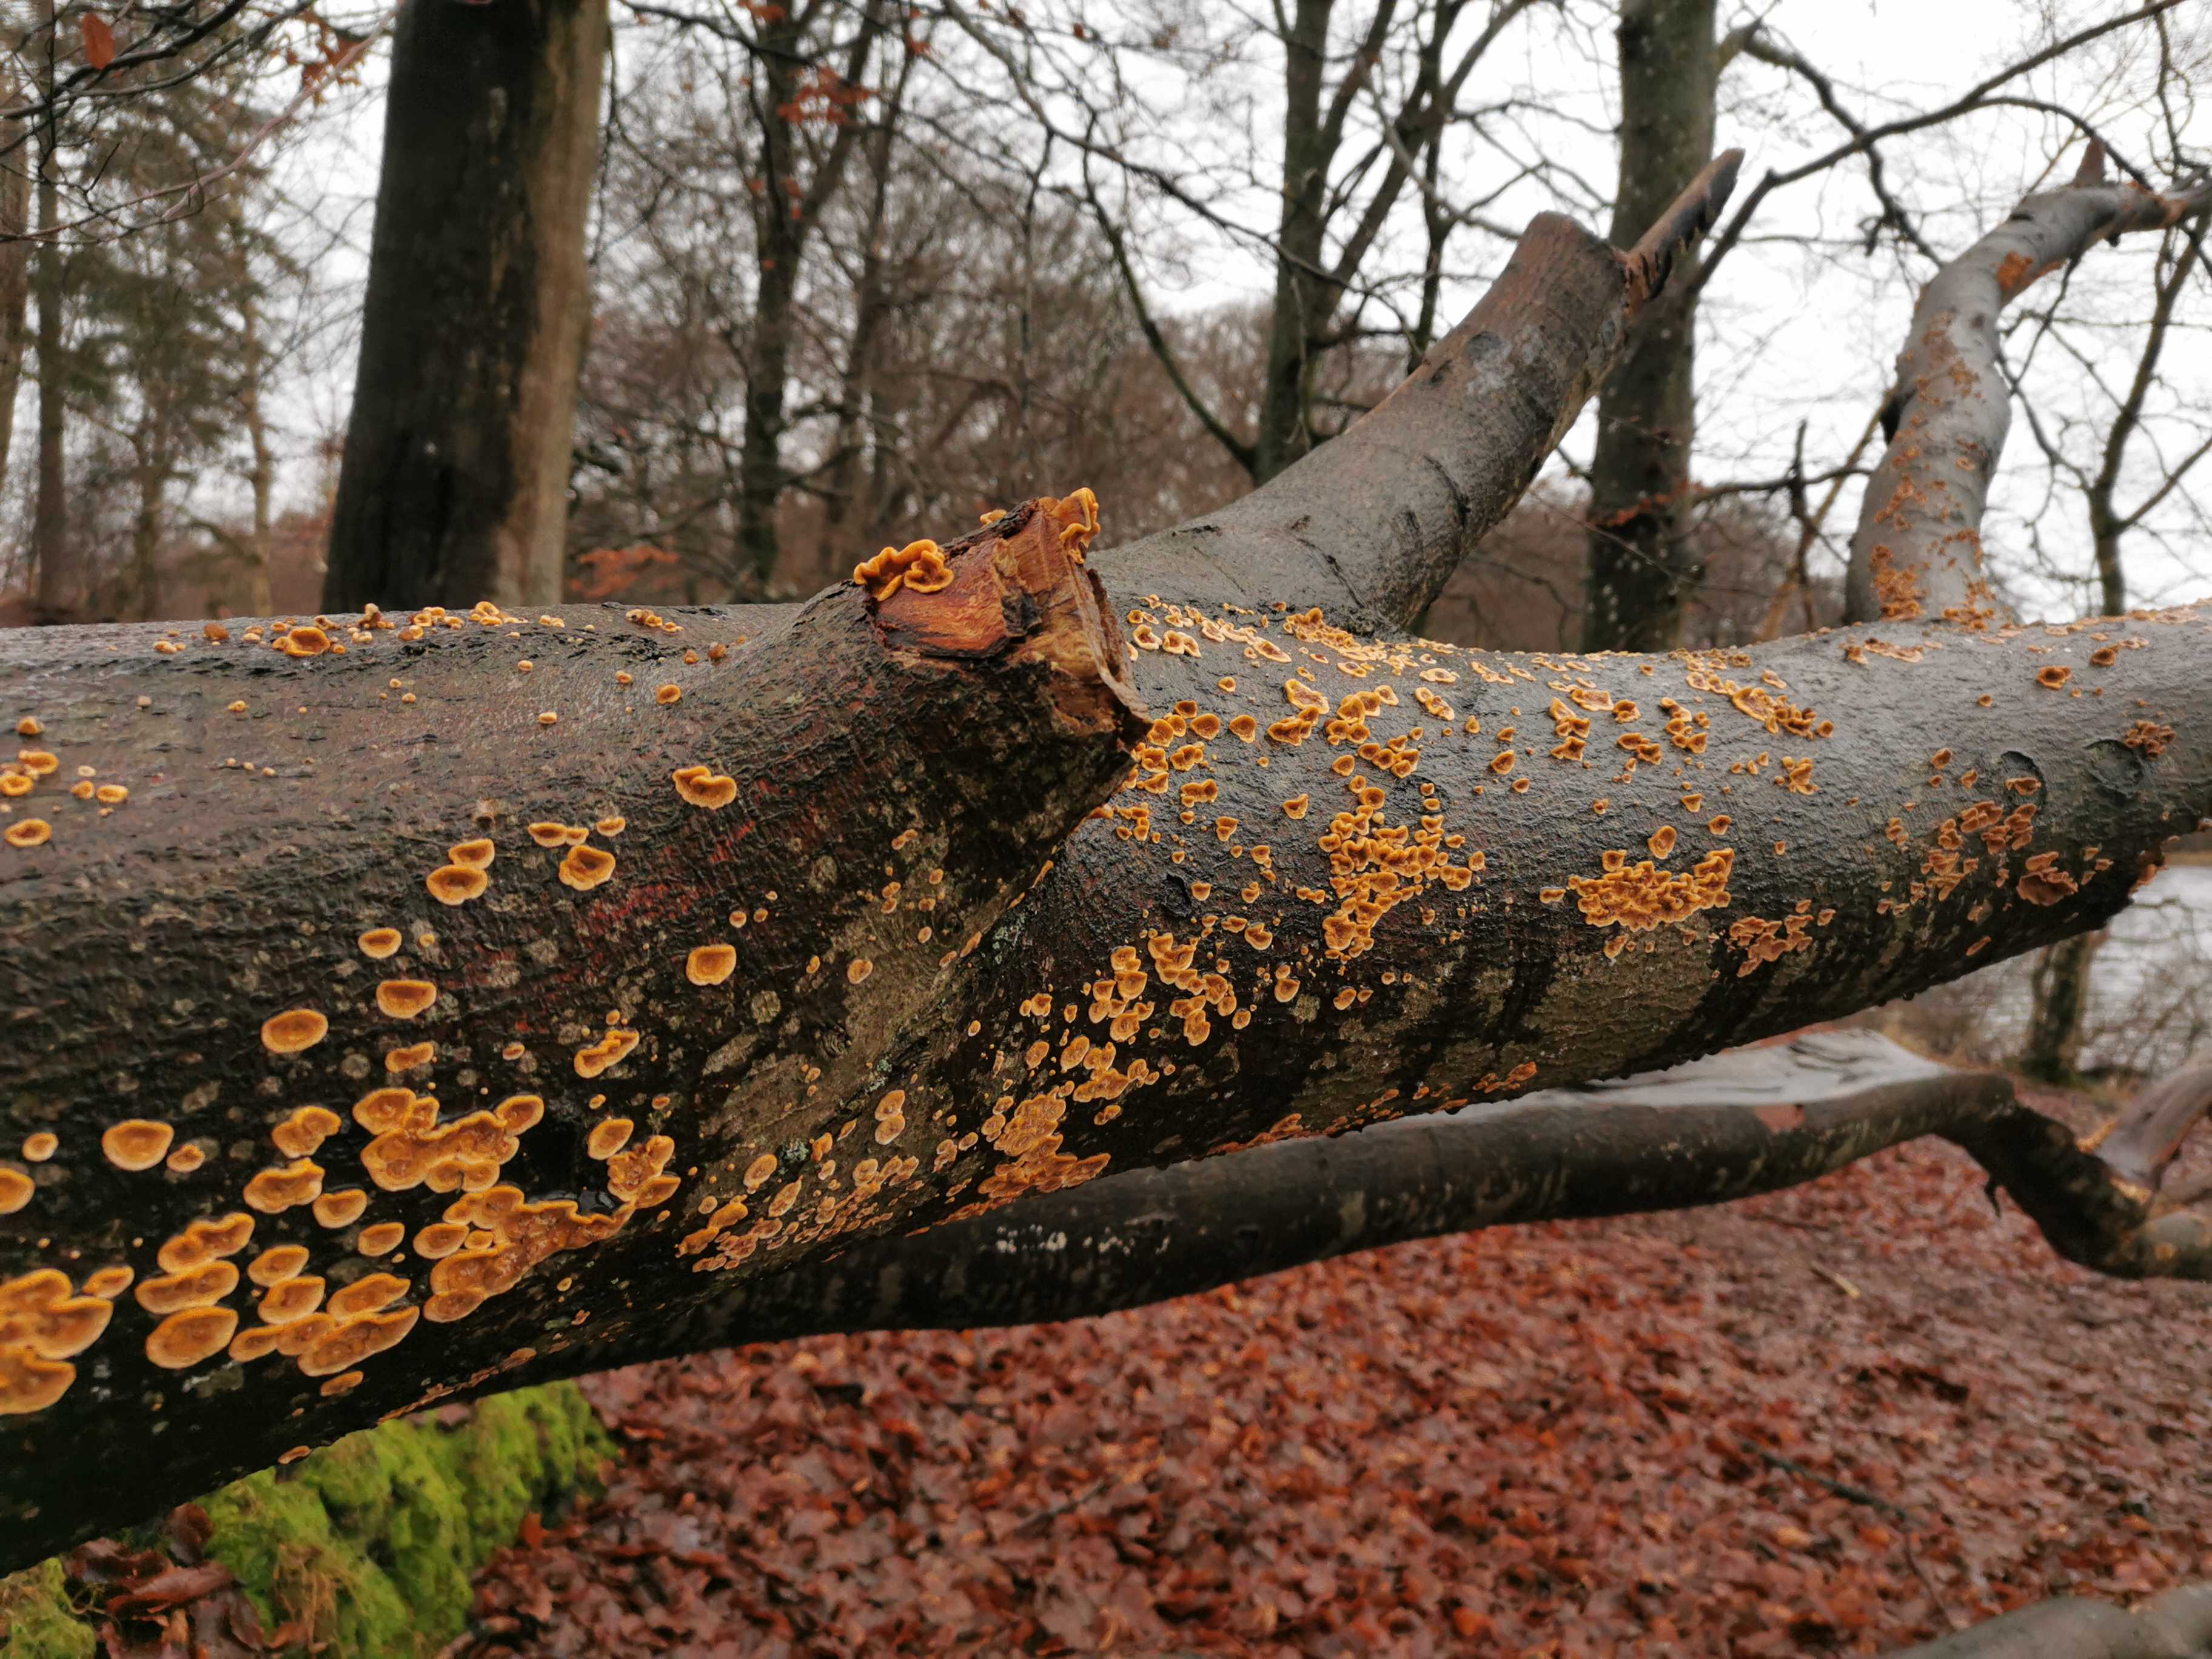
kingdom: Fungi
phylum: Basidiomycota
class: Agaricomycetes
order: Russulales
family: Stereaceae
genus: Stereum
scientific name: Stereum hirsutum
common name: håret lædersvamp
